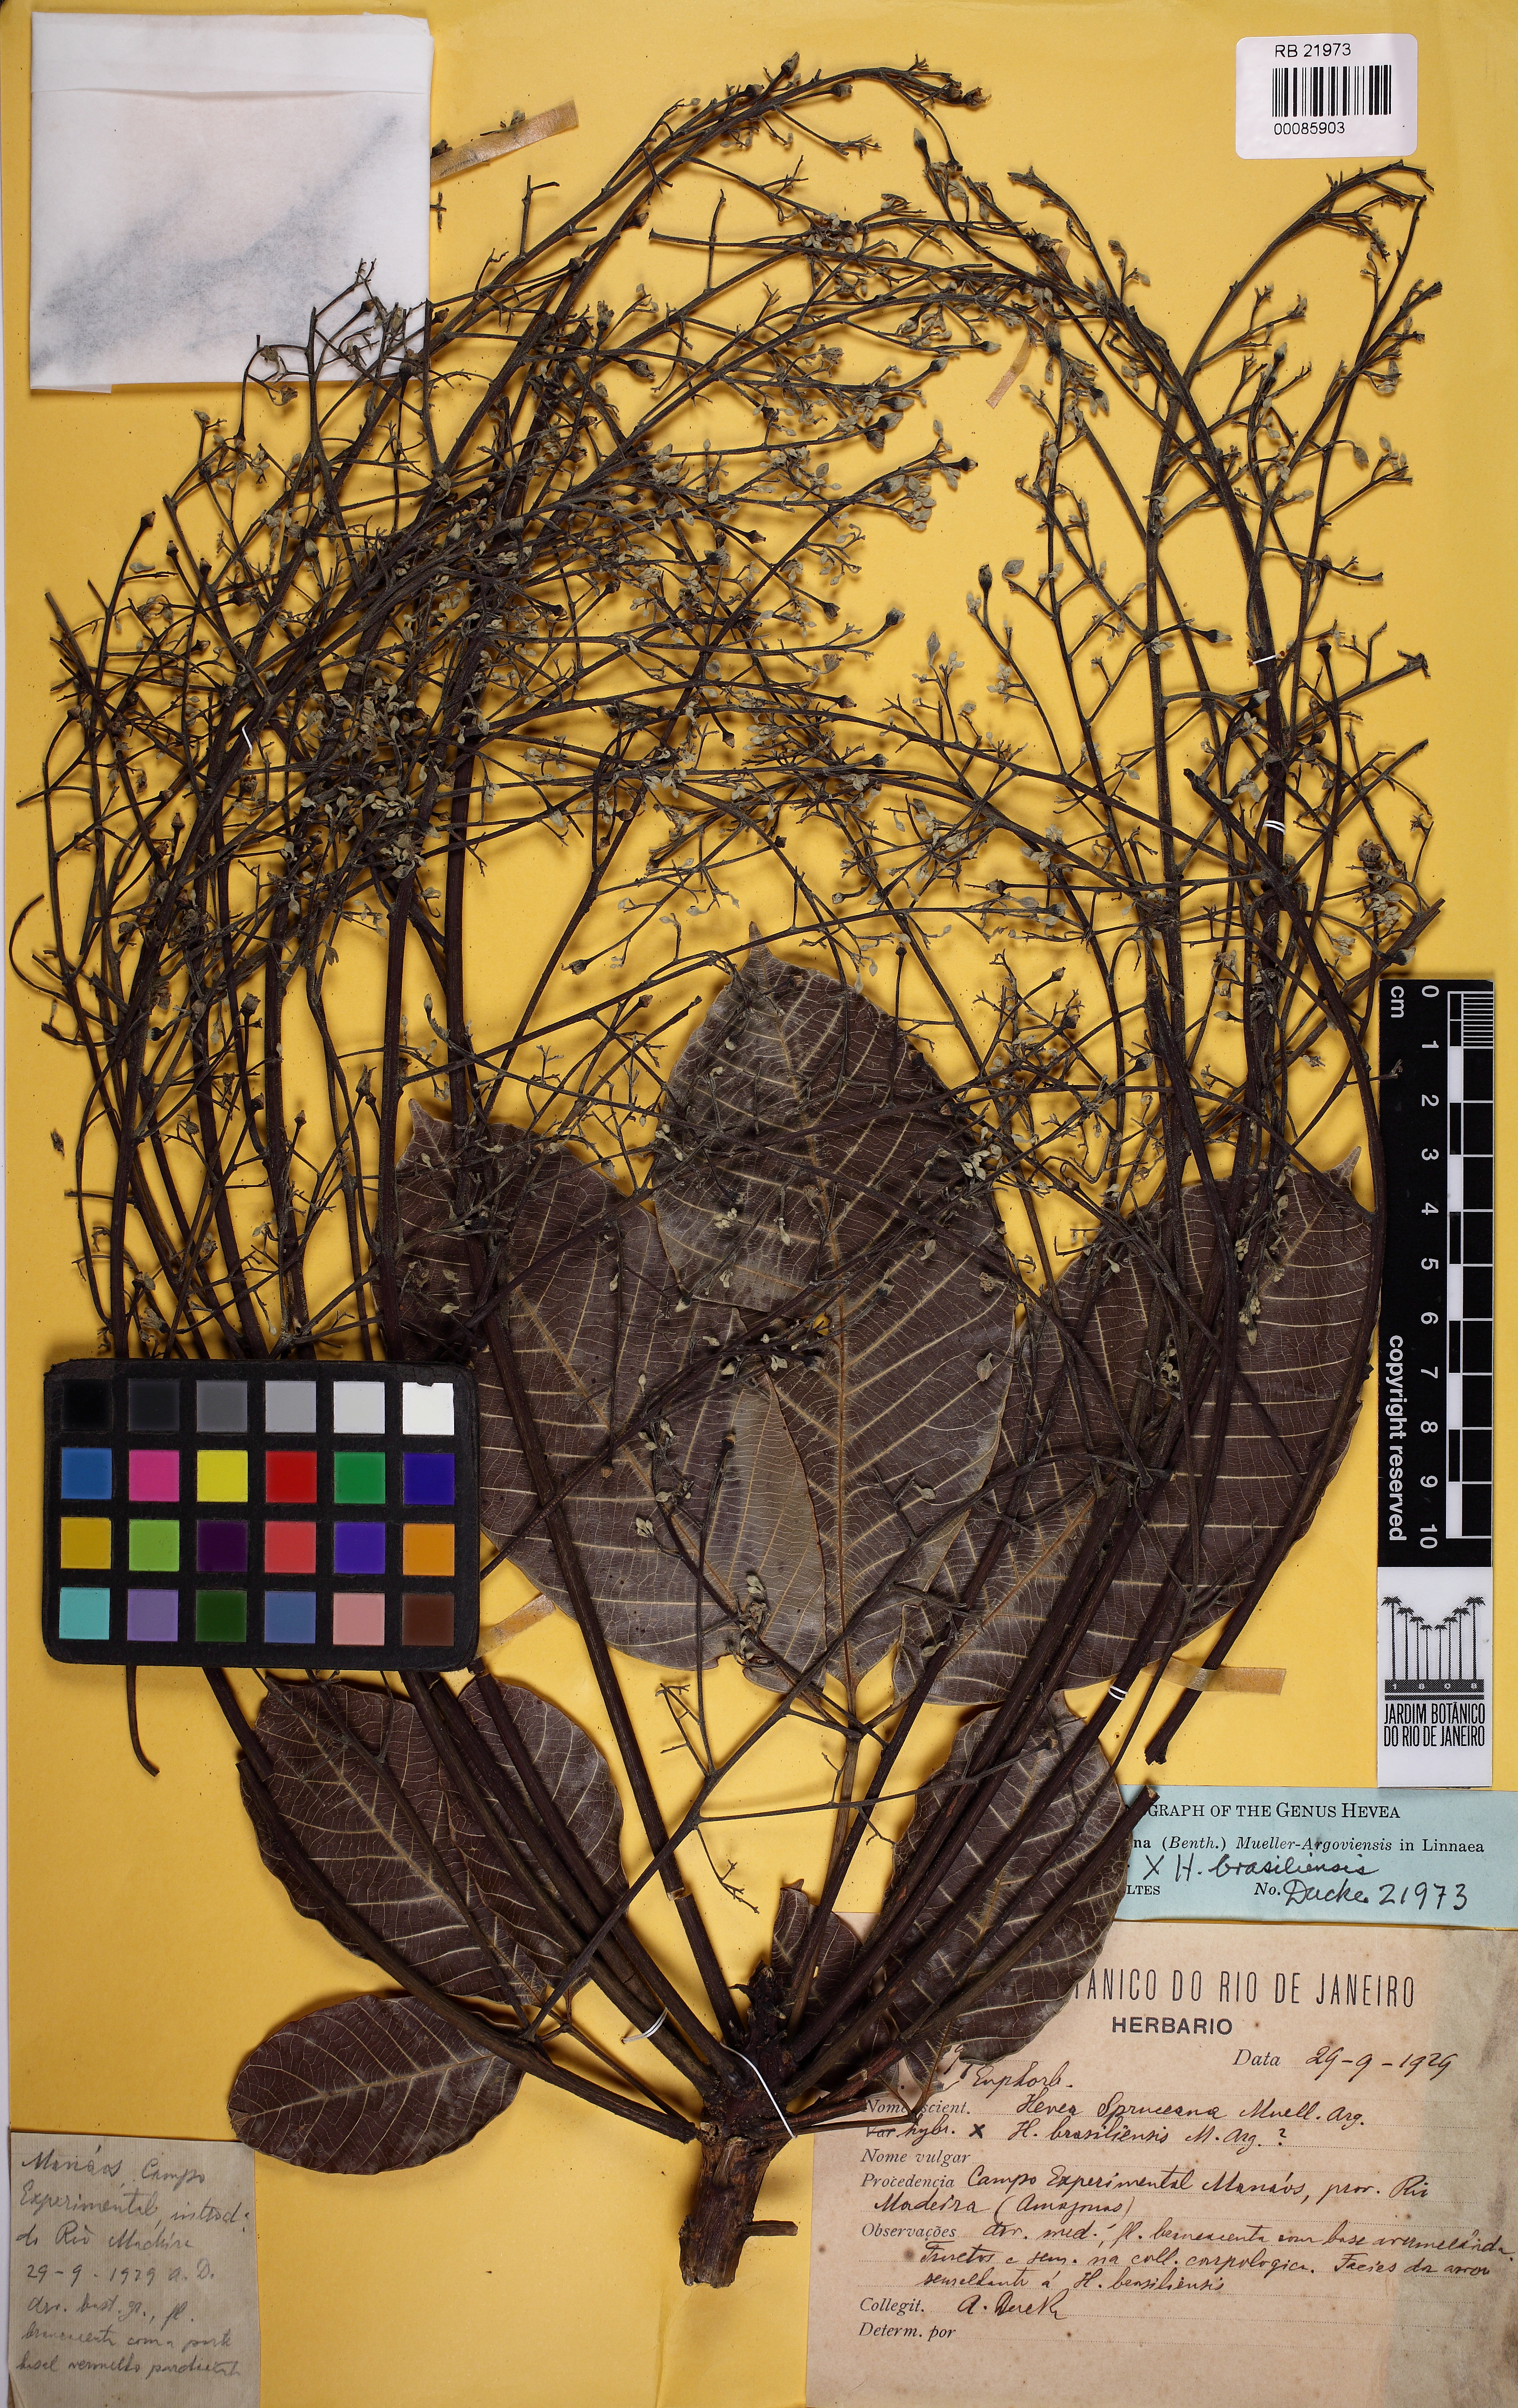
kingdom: Plantae
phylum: Tracheophyta
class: Magnoliopsida
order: Malpighiales
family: Euphorbiaceae
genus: Hevea
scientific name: Hevea spruceana
